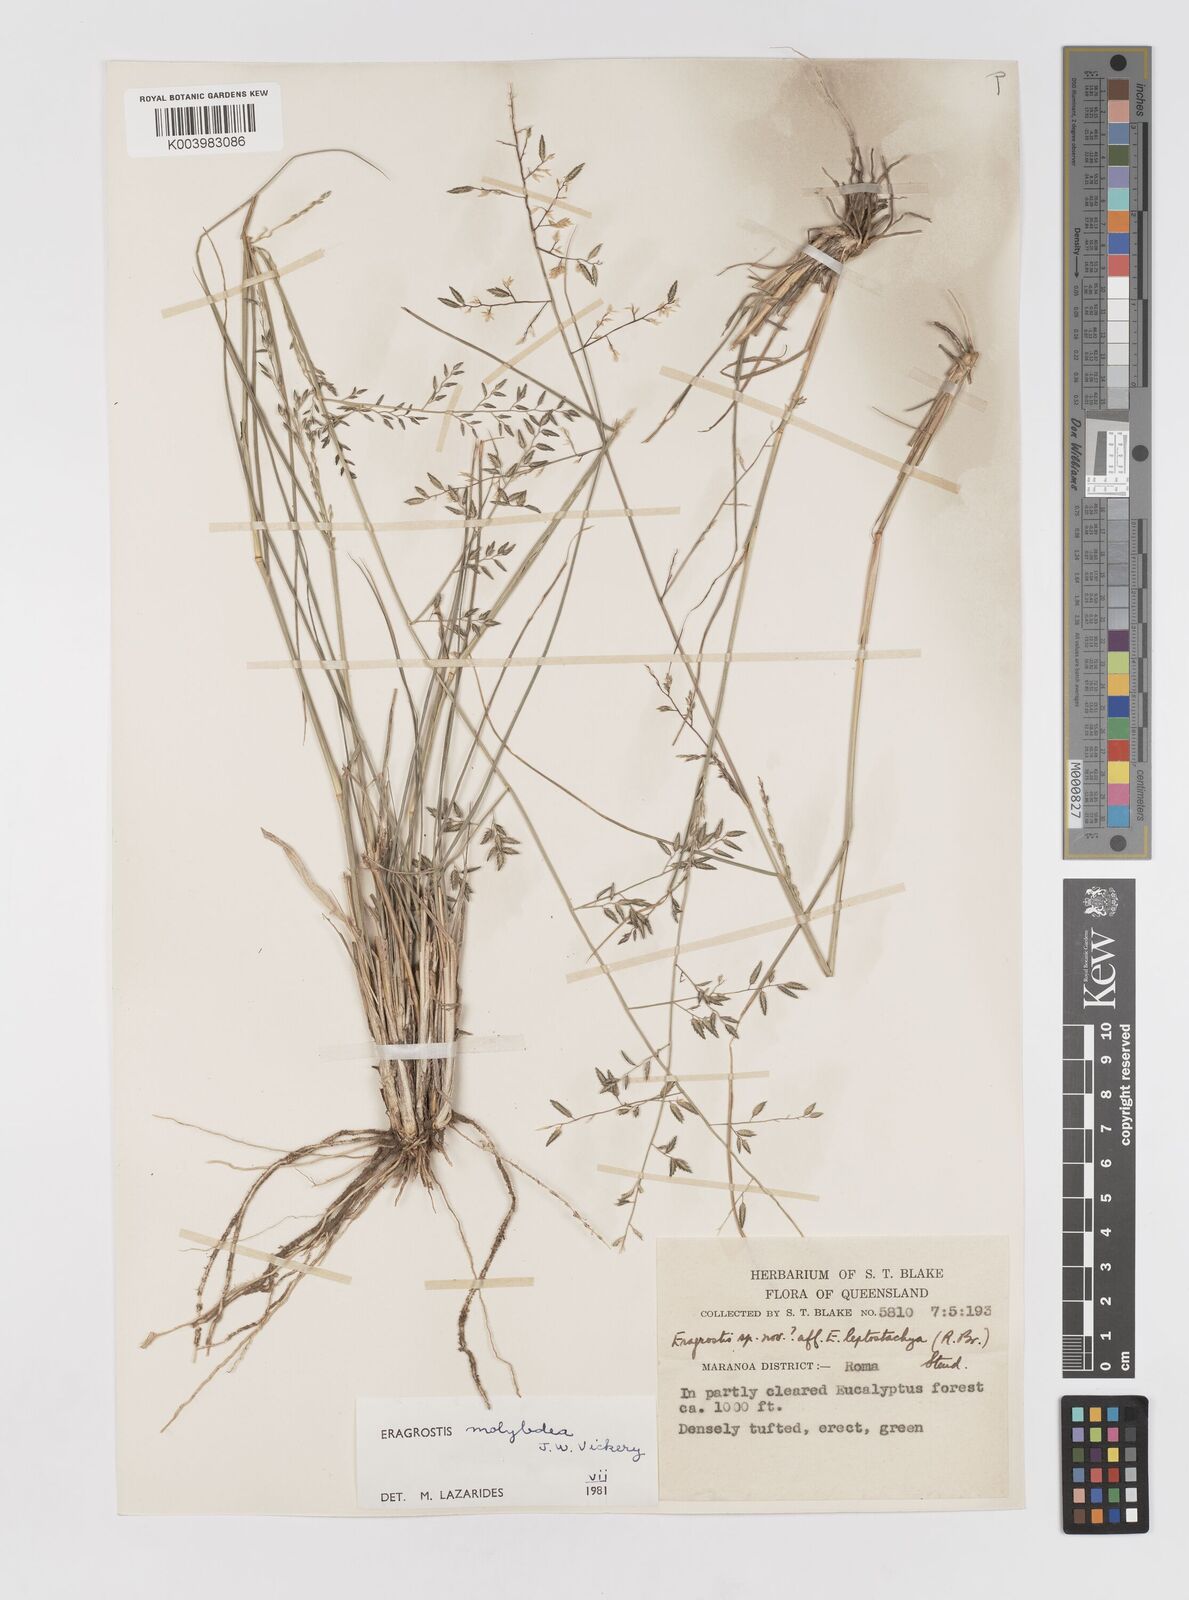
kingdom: Plantae
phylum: Tracheophyta
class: Liliopsida
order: Poales
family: Poaceae
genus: Eragrostis
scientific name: Eragrostis leptostachya
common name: Australian lovegrass
